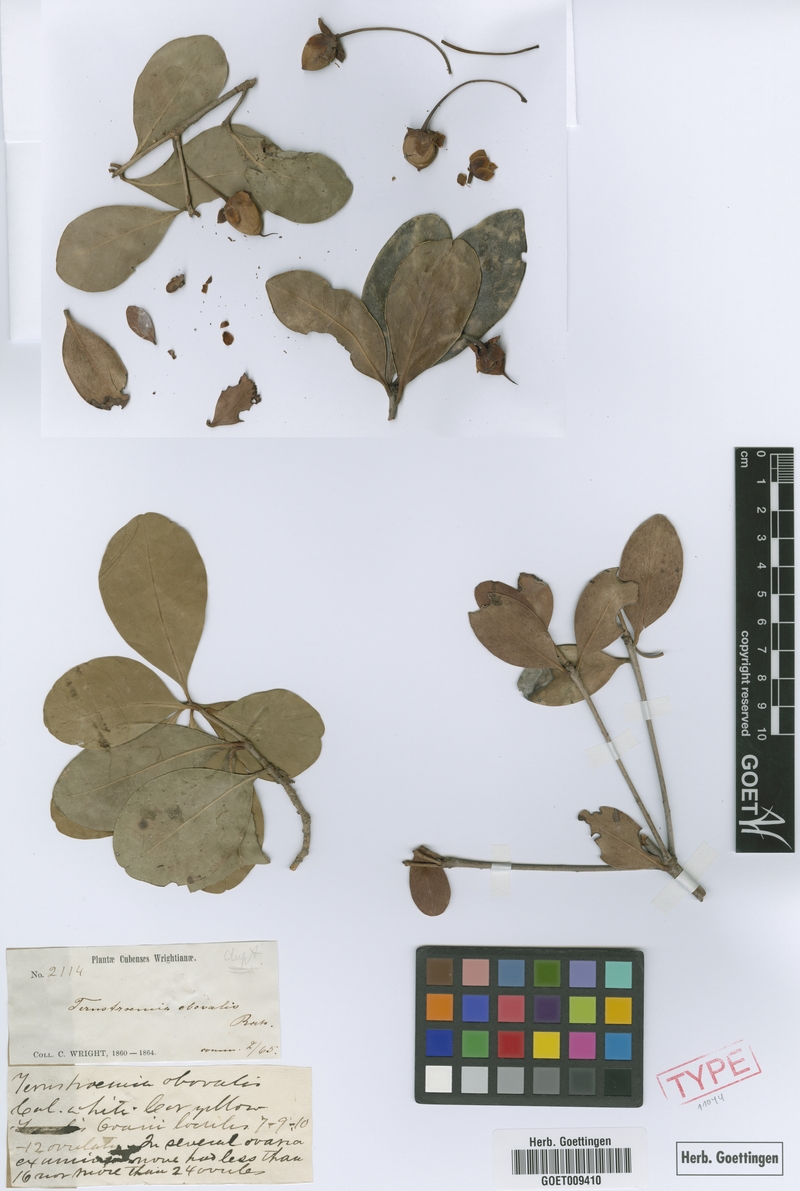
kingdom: Plantae
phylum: Tracheophyta
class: Magnoliopsida
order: Ericales
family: Pentaphylacaceae
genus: Ternstroemia
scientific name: Ternstroemia peduncularis
